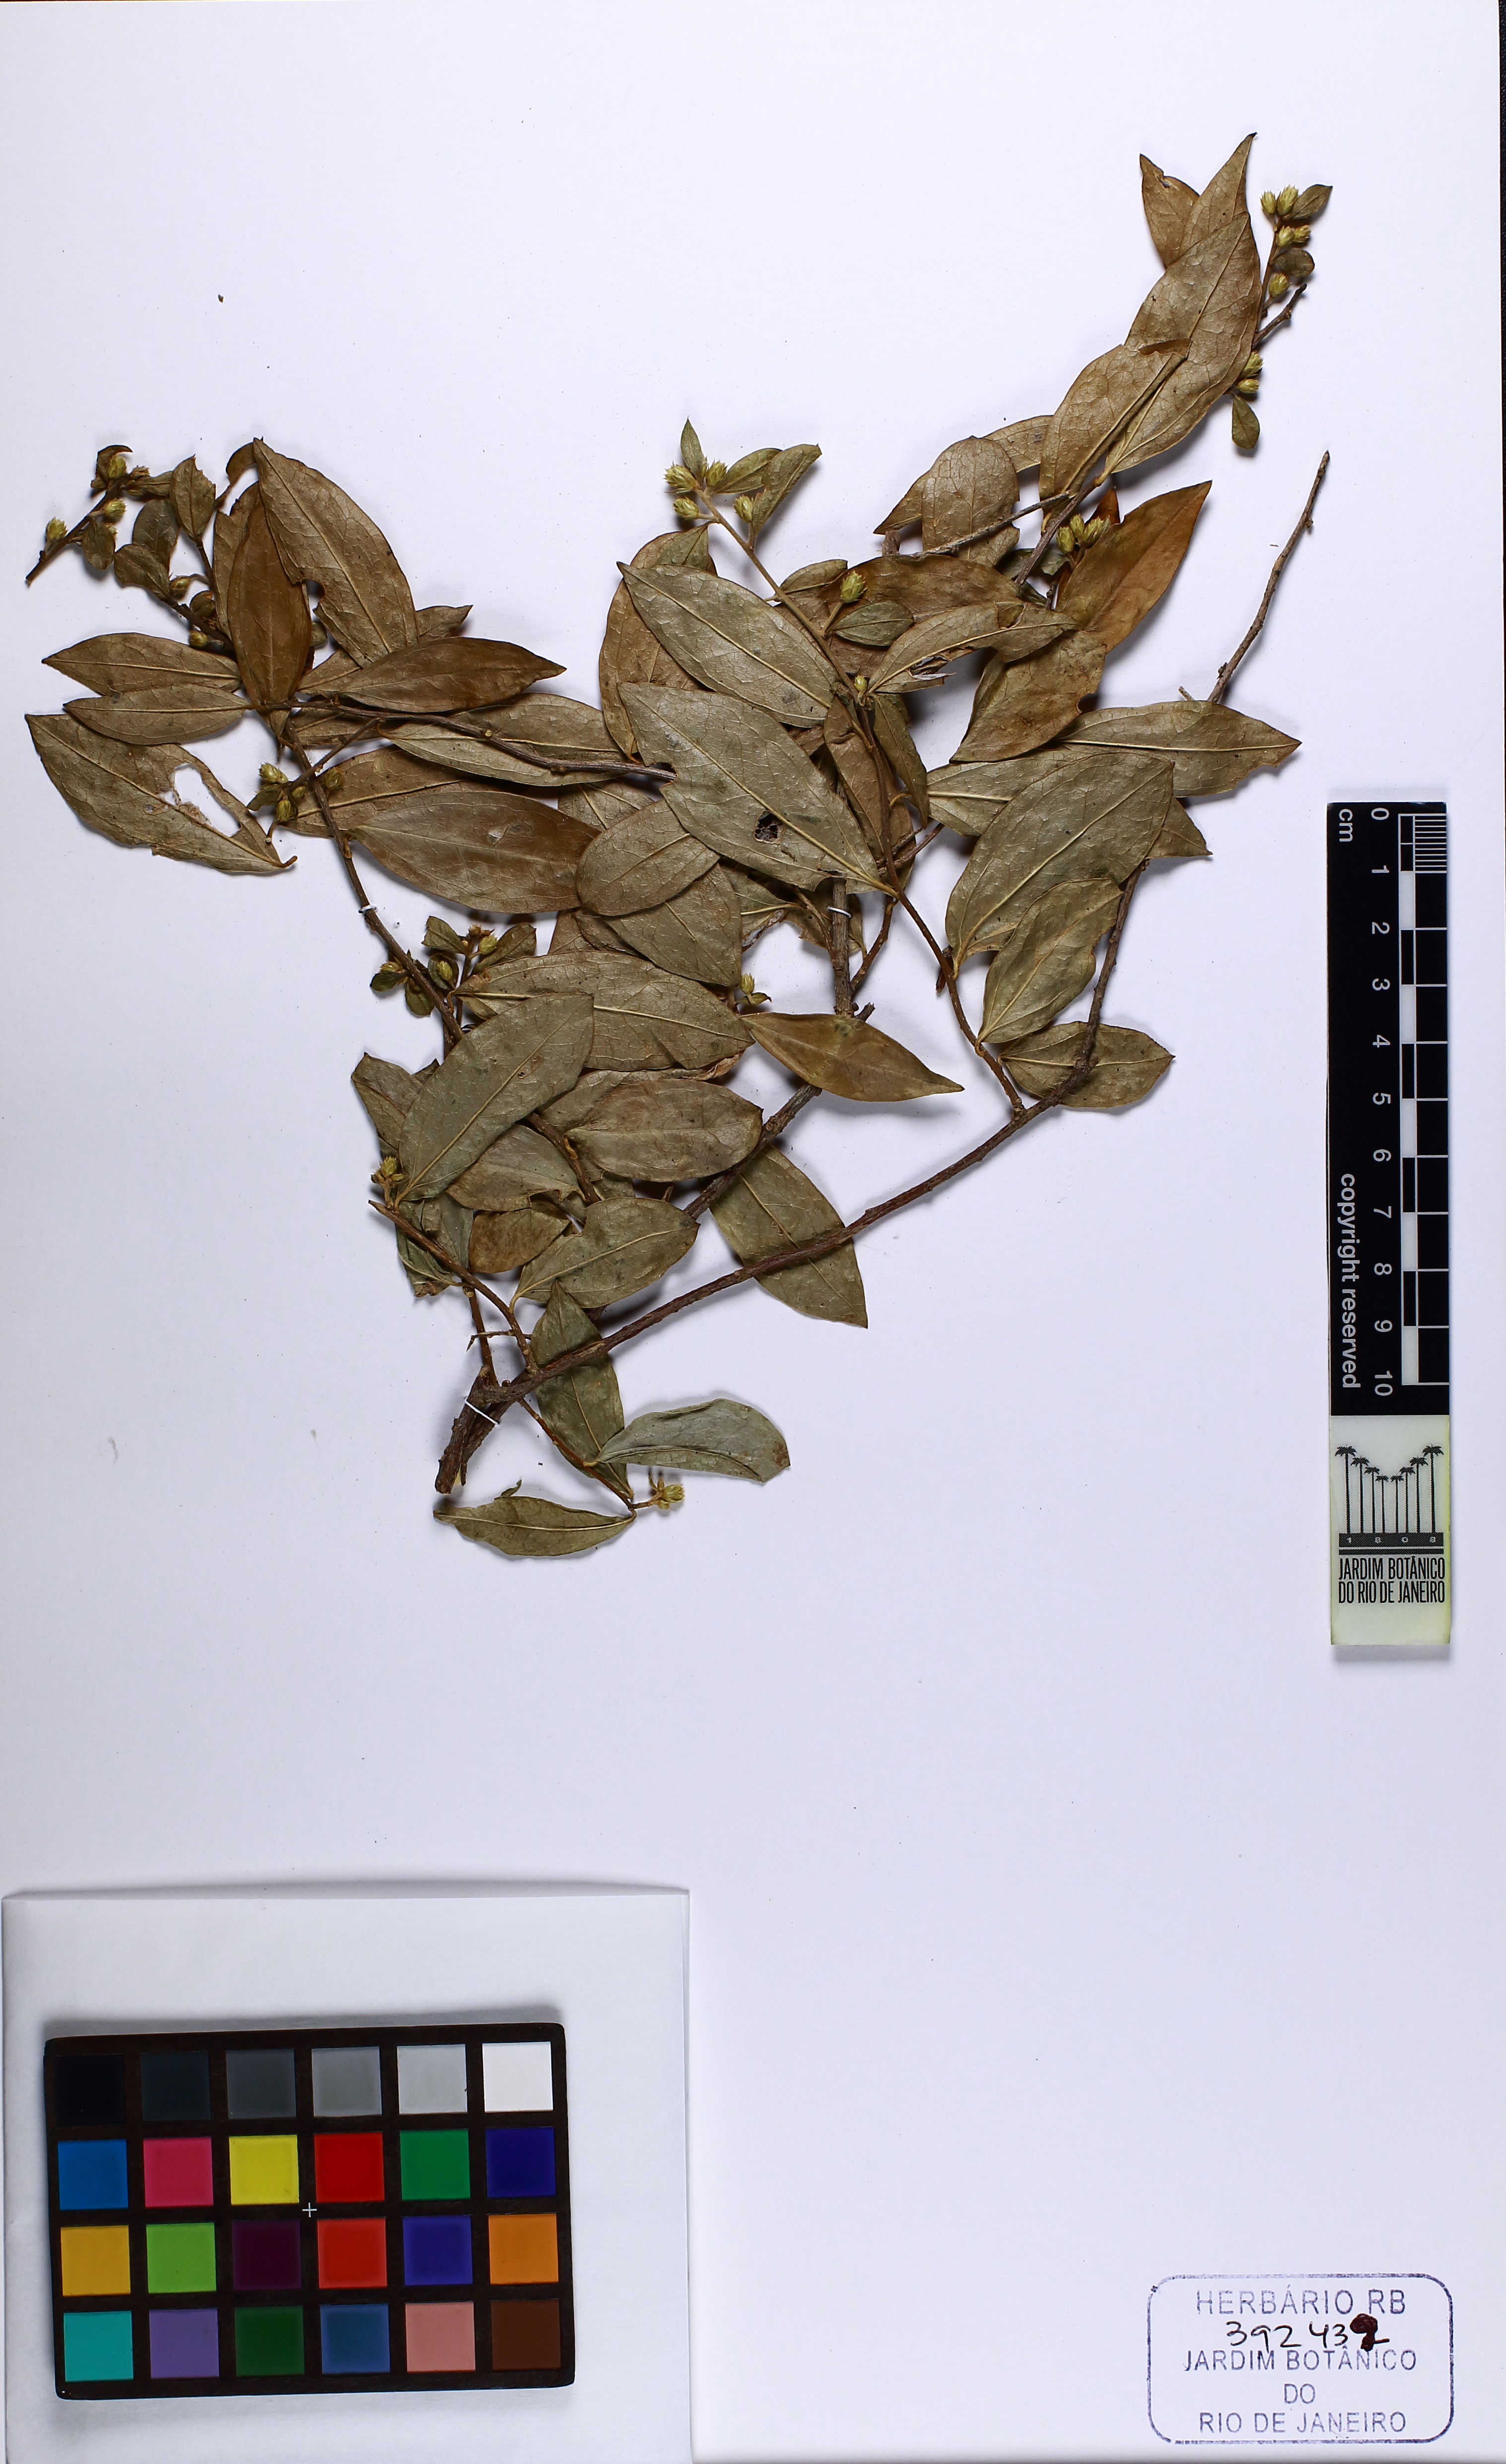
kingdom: Plantae
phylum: Tracheophyta
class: Magnoliopsida
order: Asterales
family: Asteraceae
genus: Dasyphyllum
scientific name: Dasyphyllum brasiliense
